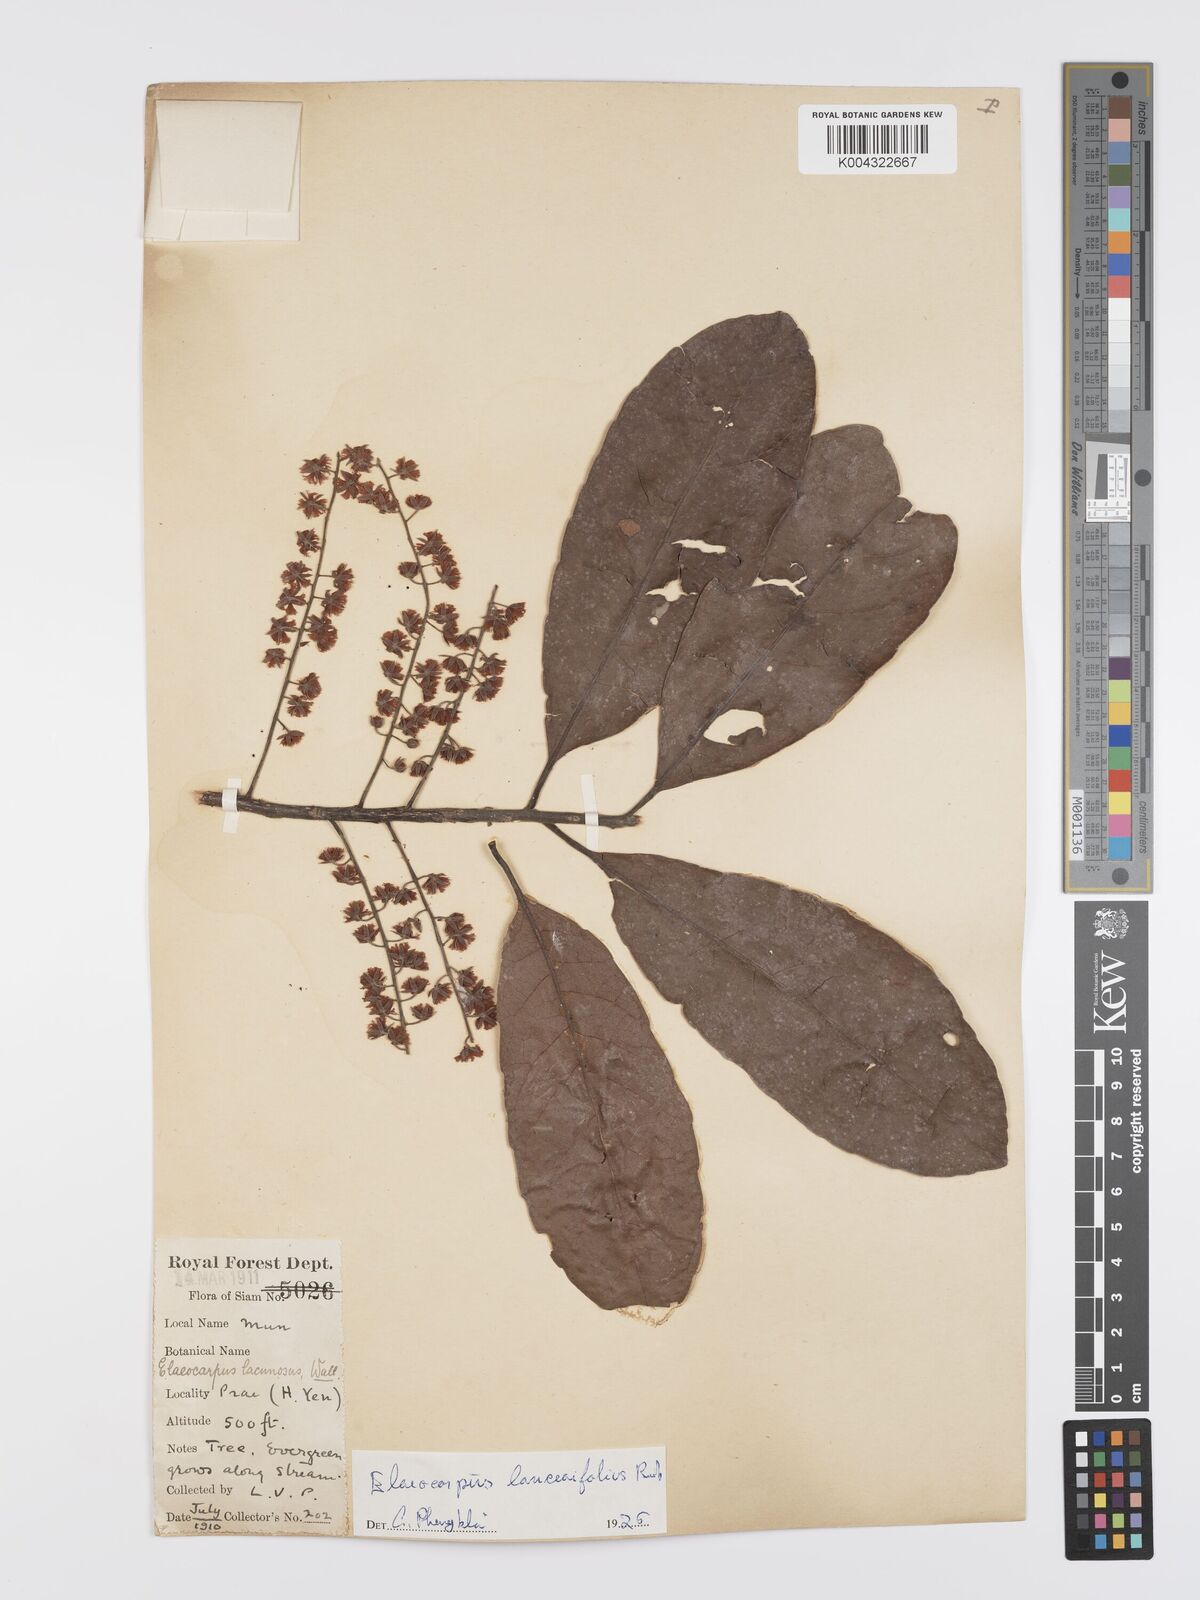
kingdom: Plantae
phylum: Tracheophyta
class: Magnoliopsida
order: Oxalidales
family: Elaeocarpaceae
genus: Elaeocarpus
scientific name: Elaeocarpus lanceifolius
